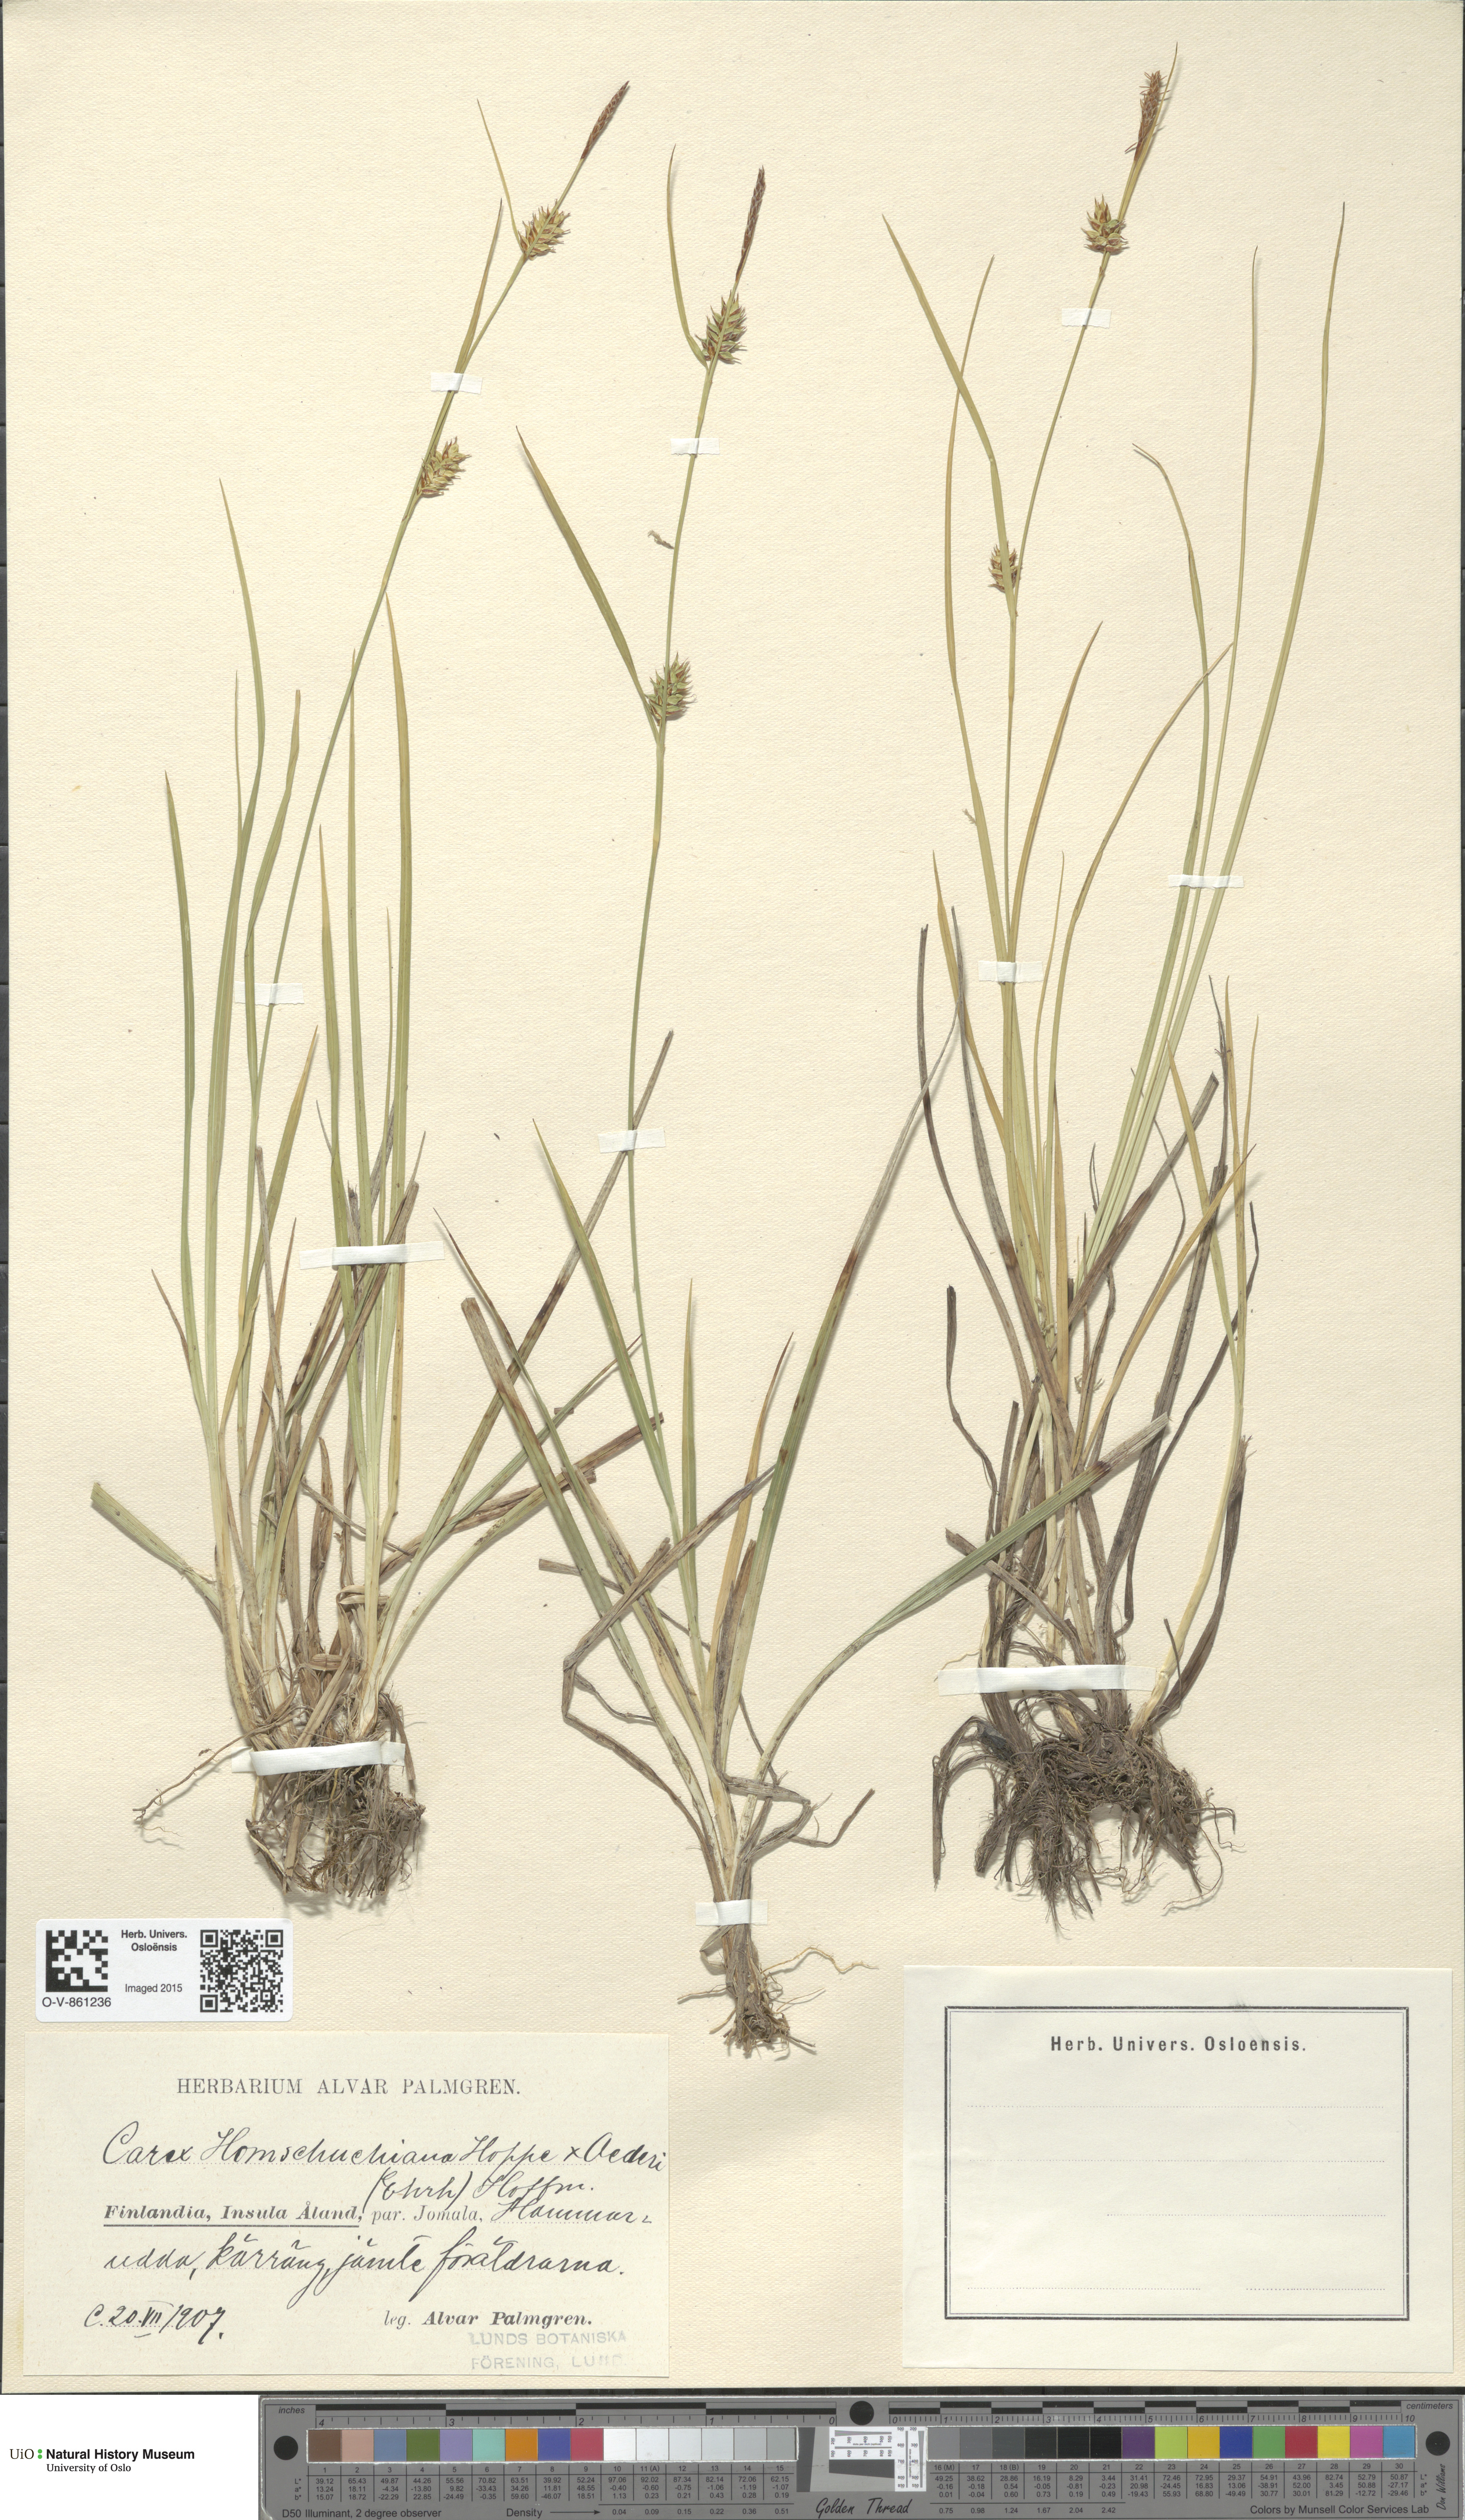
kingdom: Plantae
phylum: Tracheophyta
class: Liliopsida
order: Poales
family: Cyperaceae
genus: Carex
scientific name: Carex
